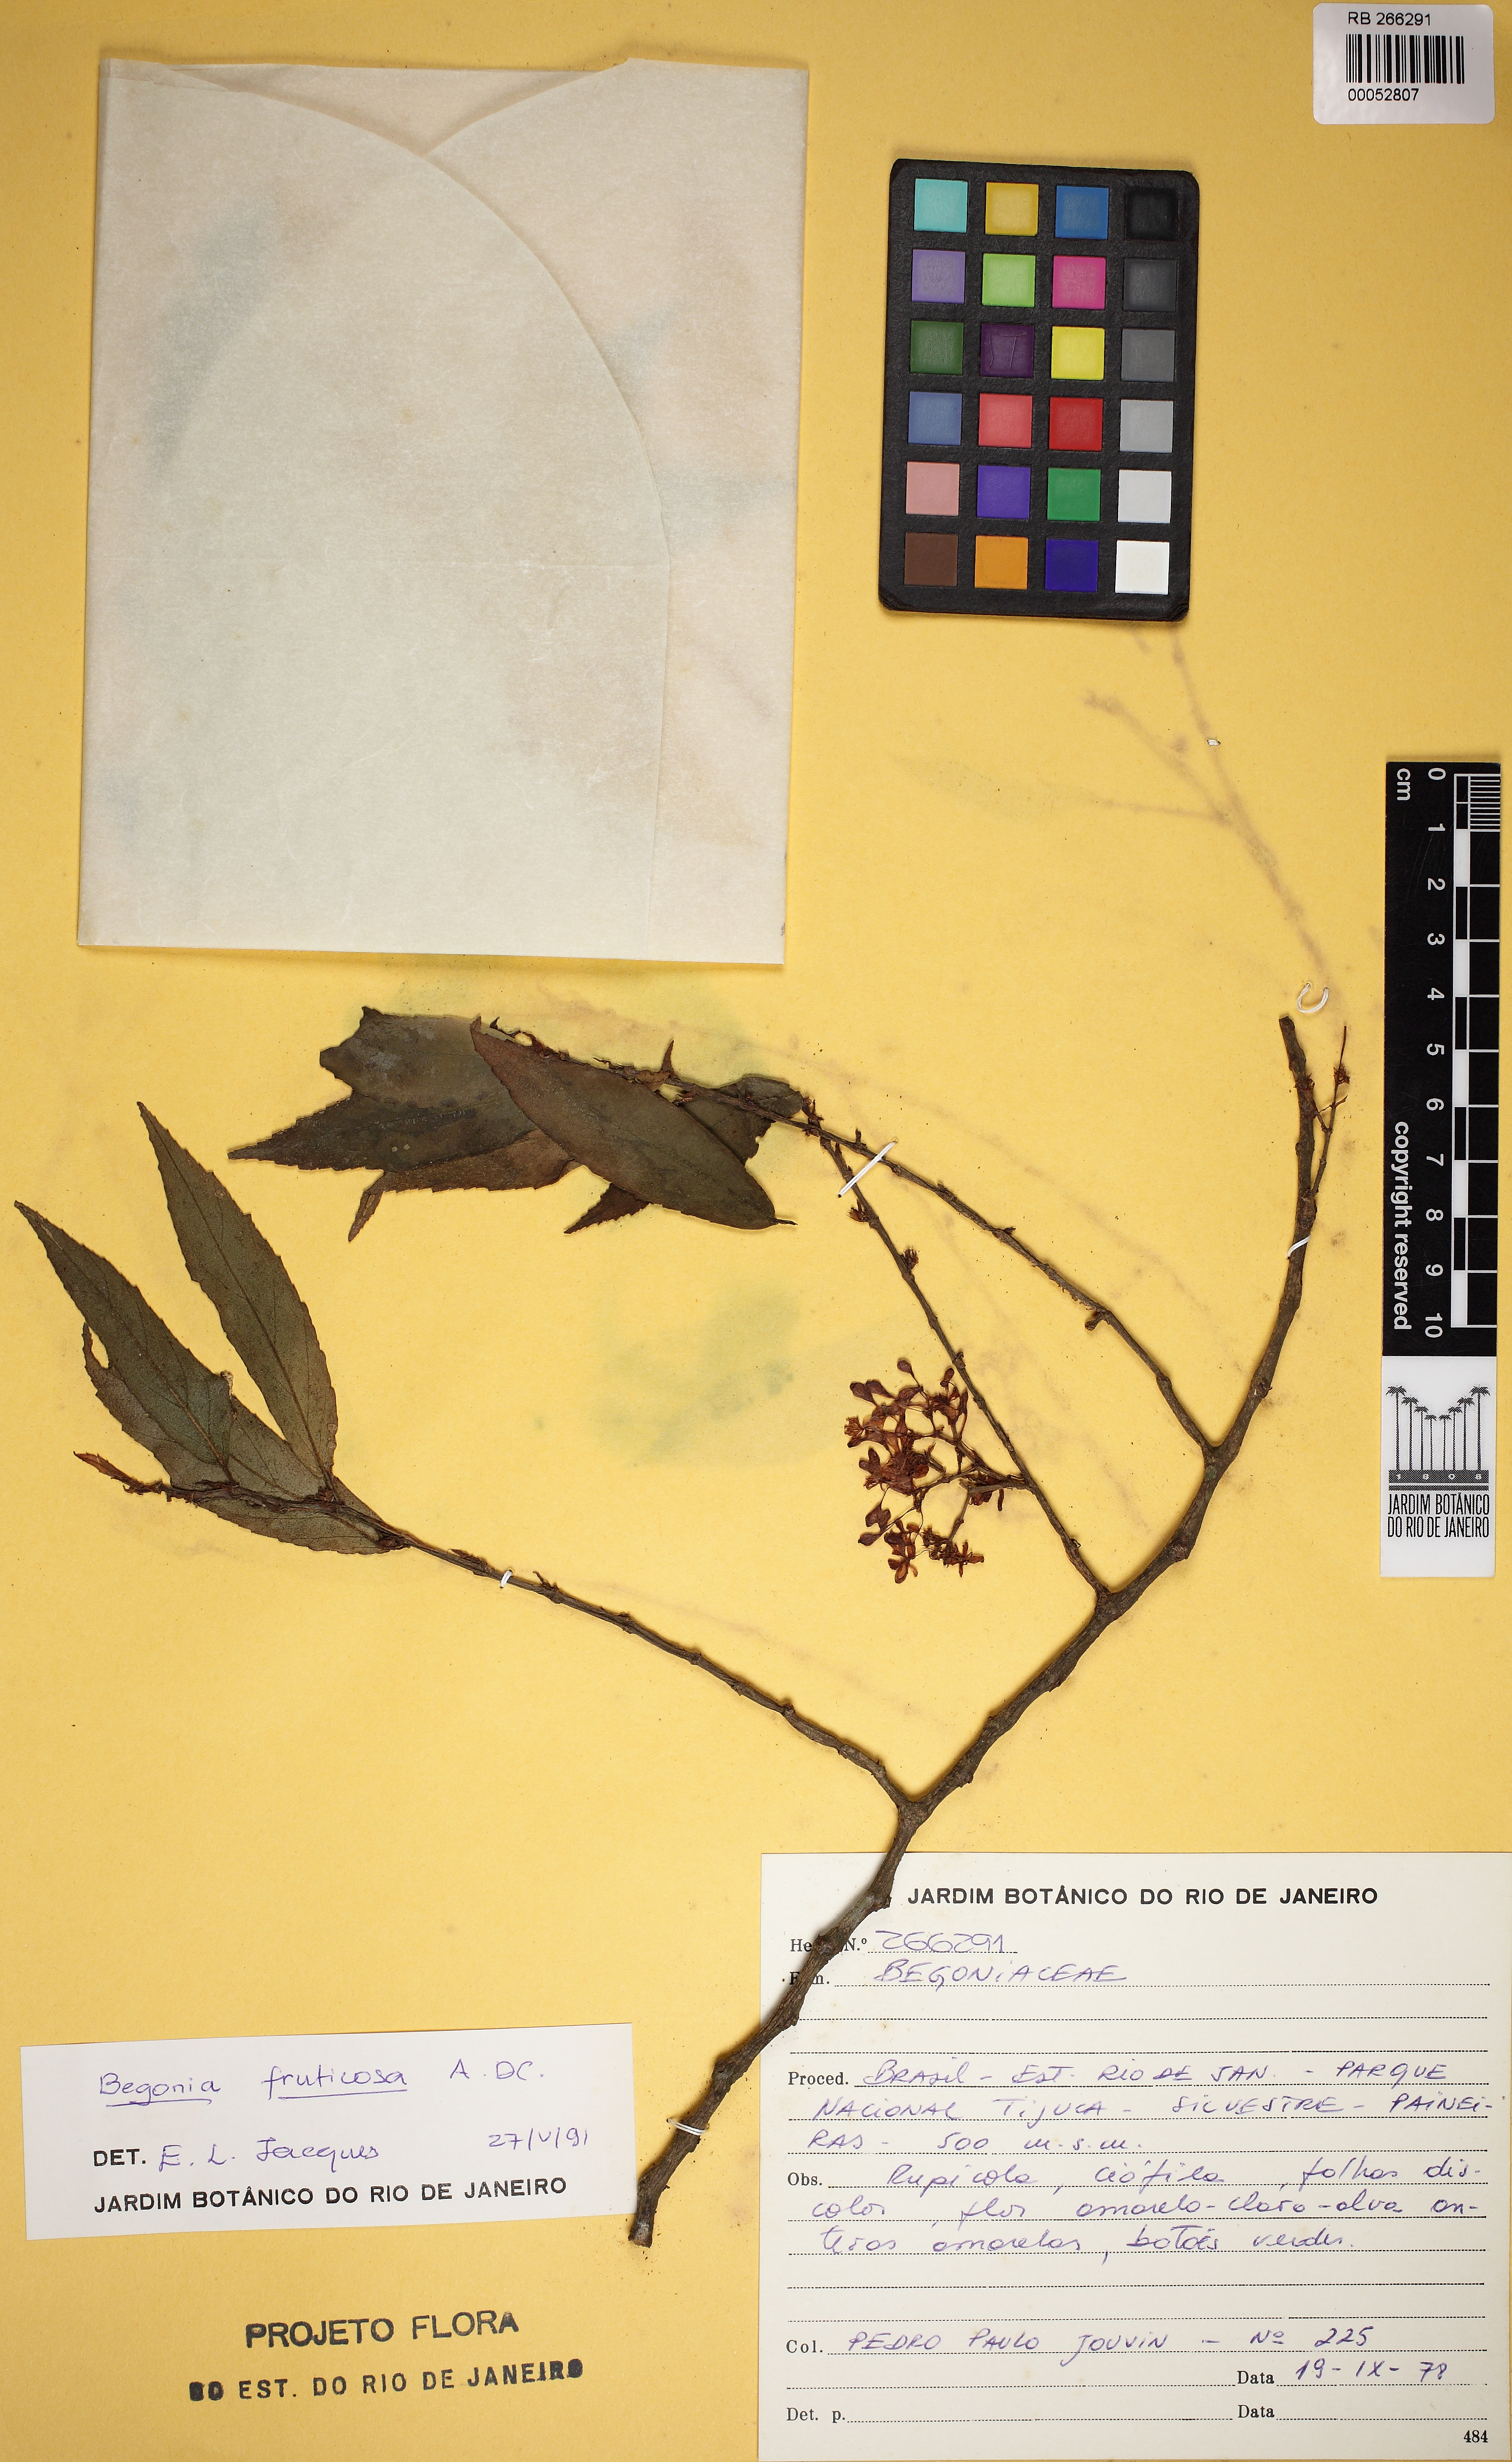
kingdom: Plantae
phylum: Tracheophyta
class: Magnoliopsida
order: Cucurbitales
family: Begoniaceae
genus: Begonia
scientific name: Begonia fruticosa
